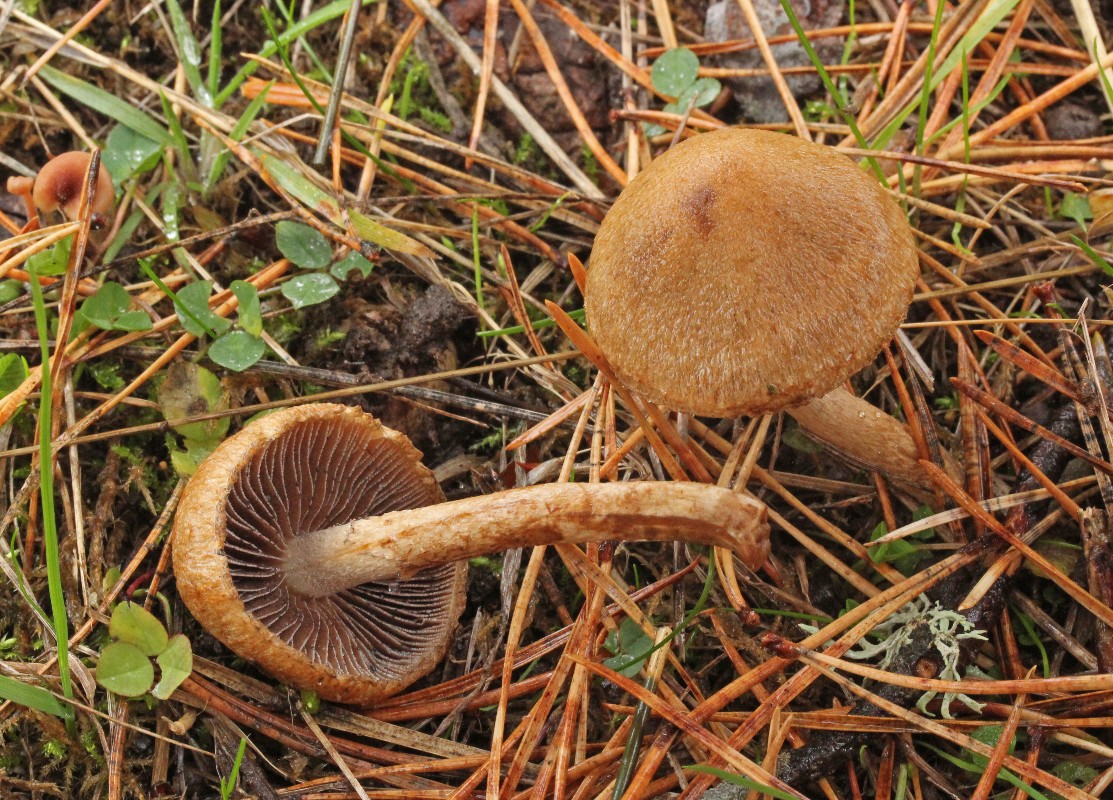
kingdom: Fungi
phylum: Basidiomycota
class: Agaricomycetes
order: Agaricales
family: Psathyrellaceae
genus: Lacrymaria
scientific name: Lacrymaria lacrymabunda
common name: grædende mørkhat
